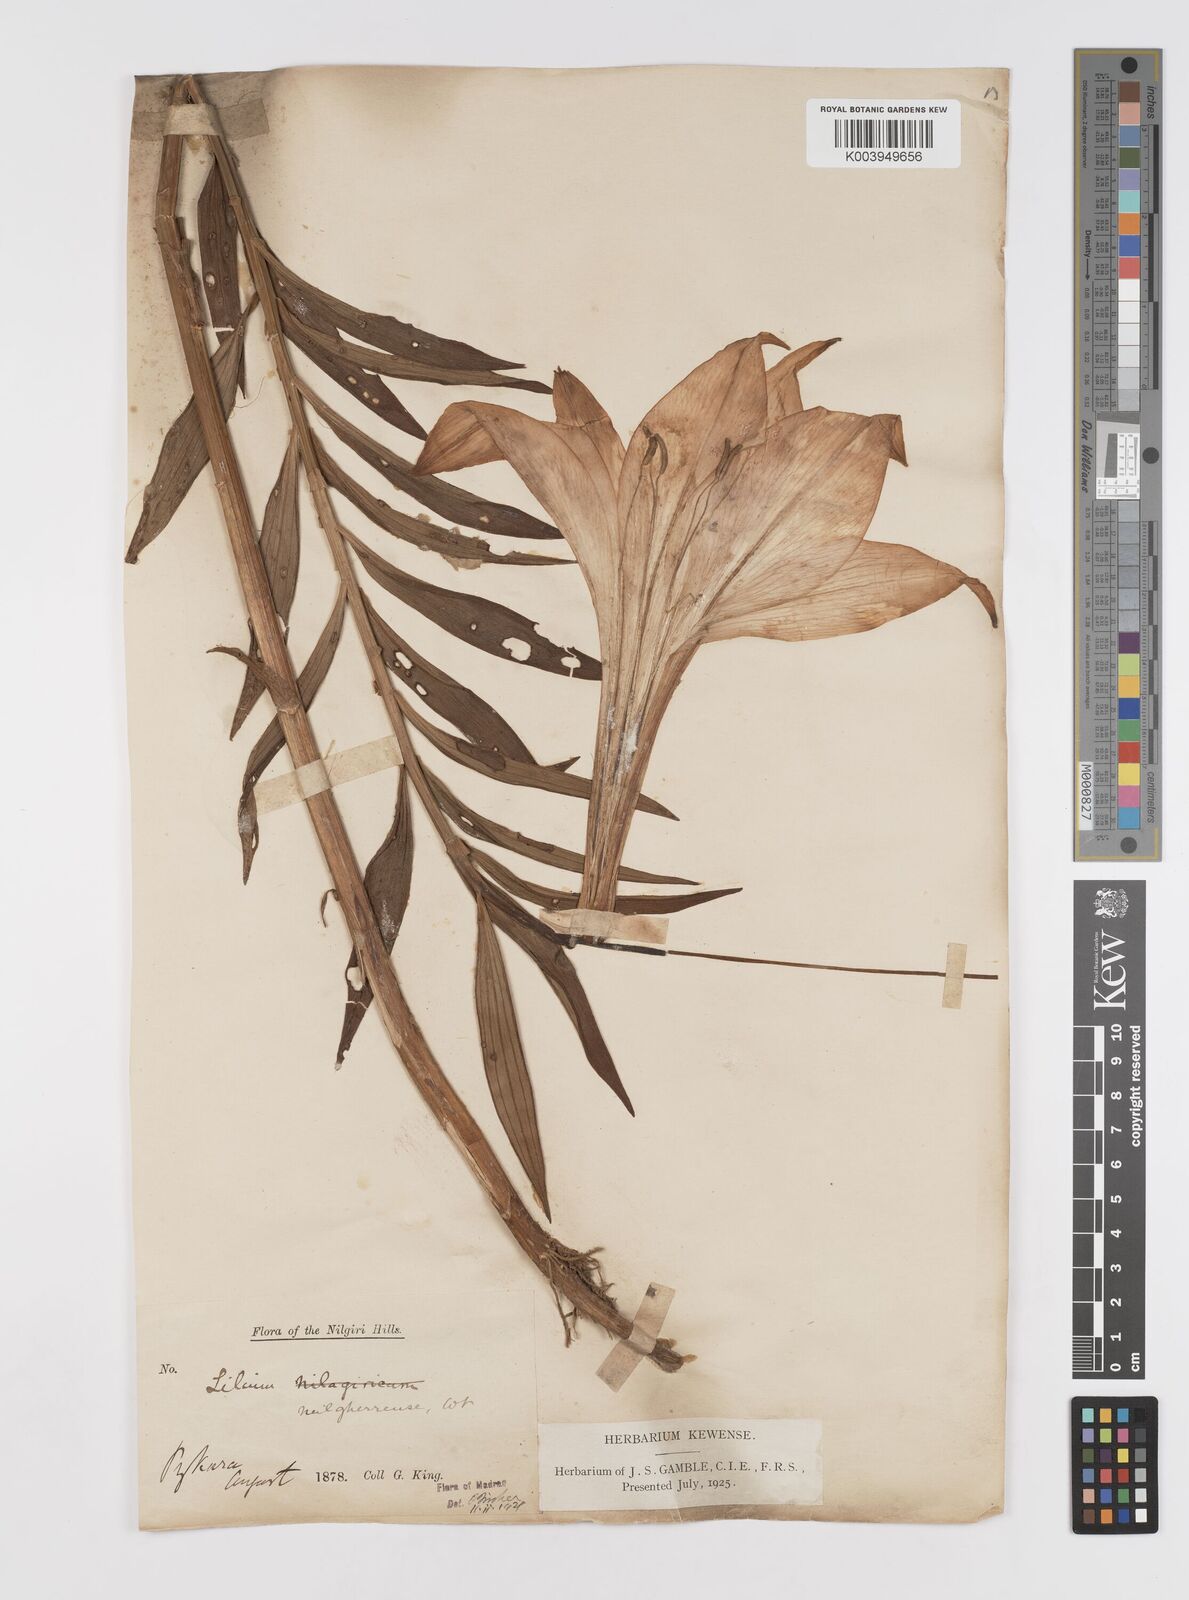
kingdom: Plantae
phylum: Tracheophyta
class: Liliopsida
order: Liliales
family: Liliaceae
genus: Lilium
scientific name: Lilium wallichianum
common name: Wallich's lily
